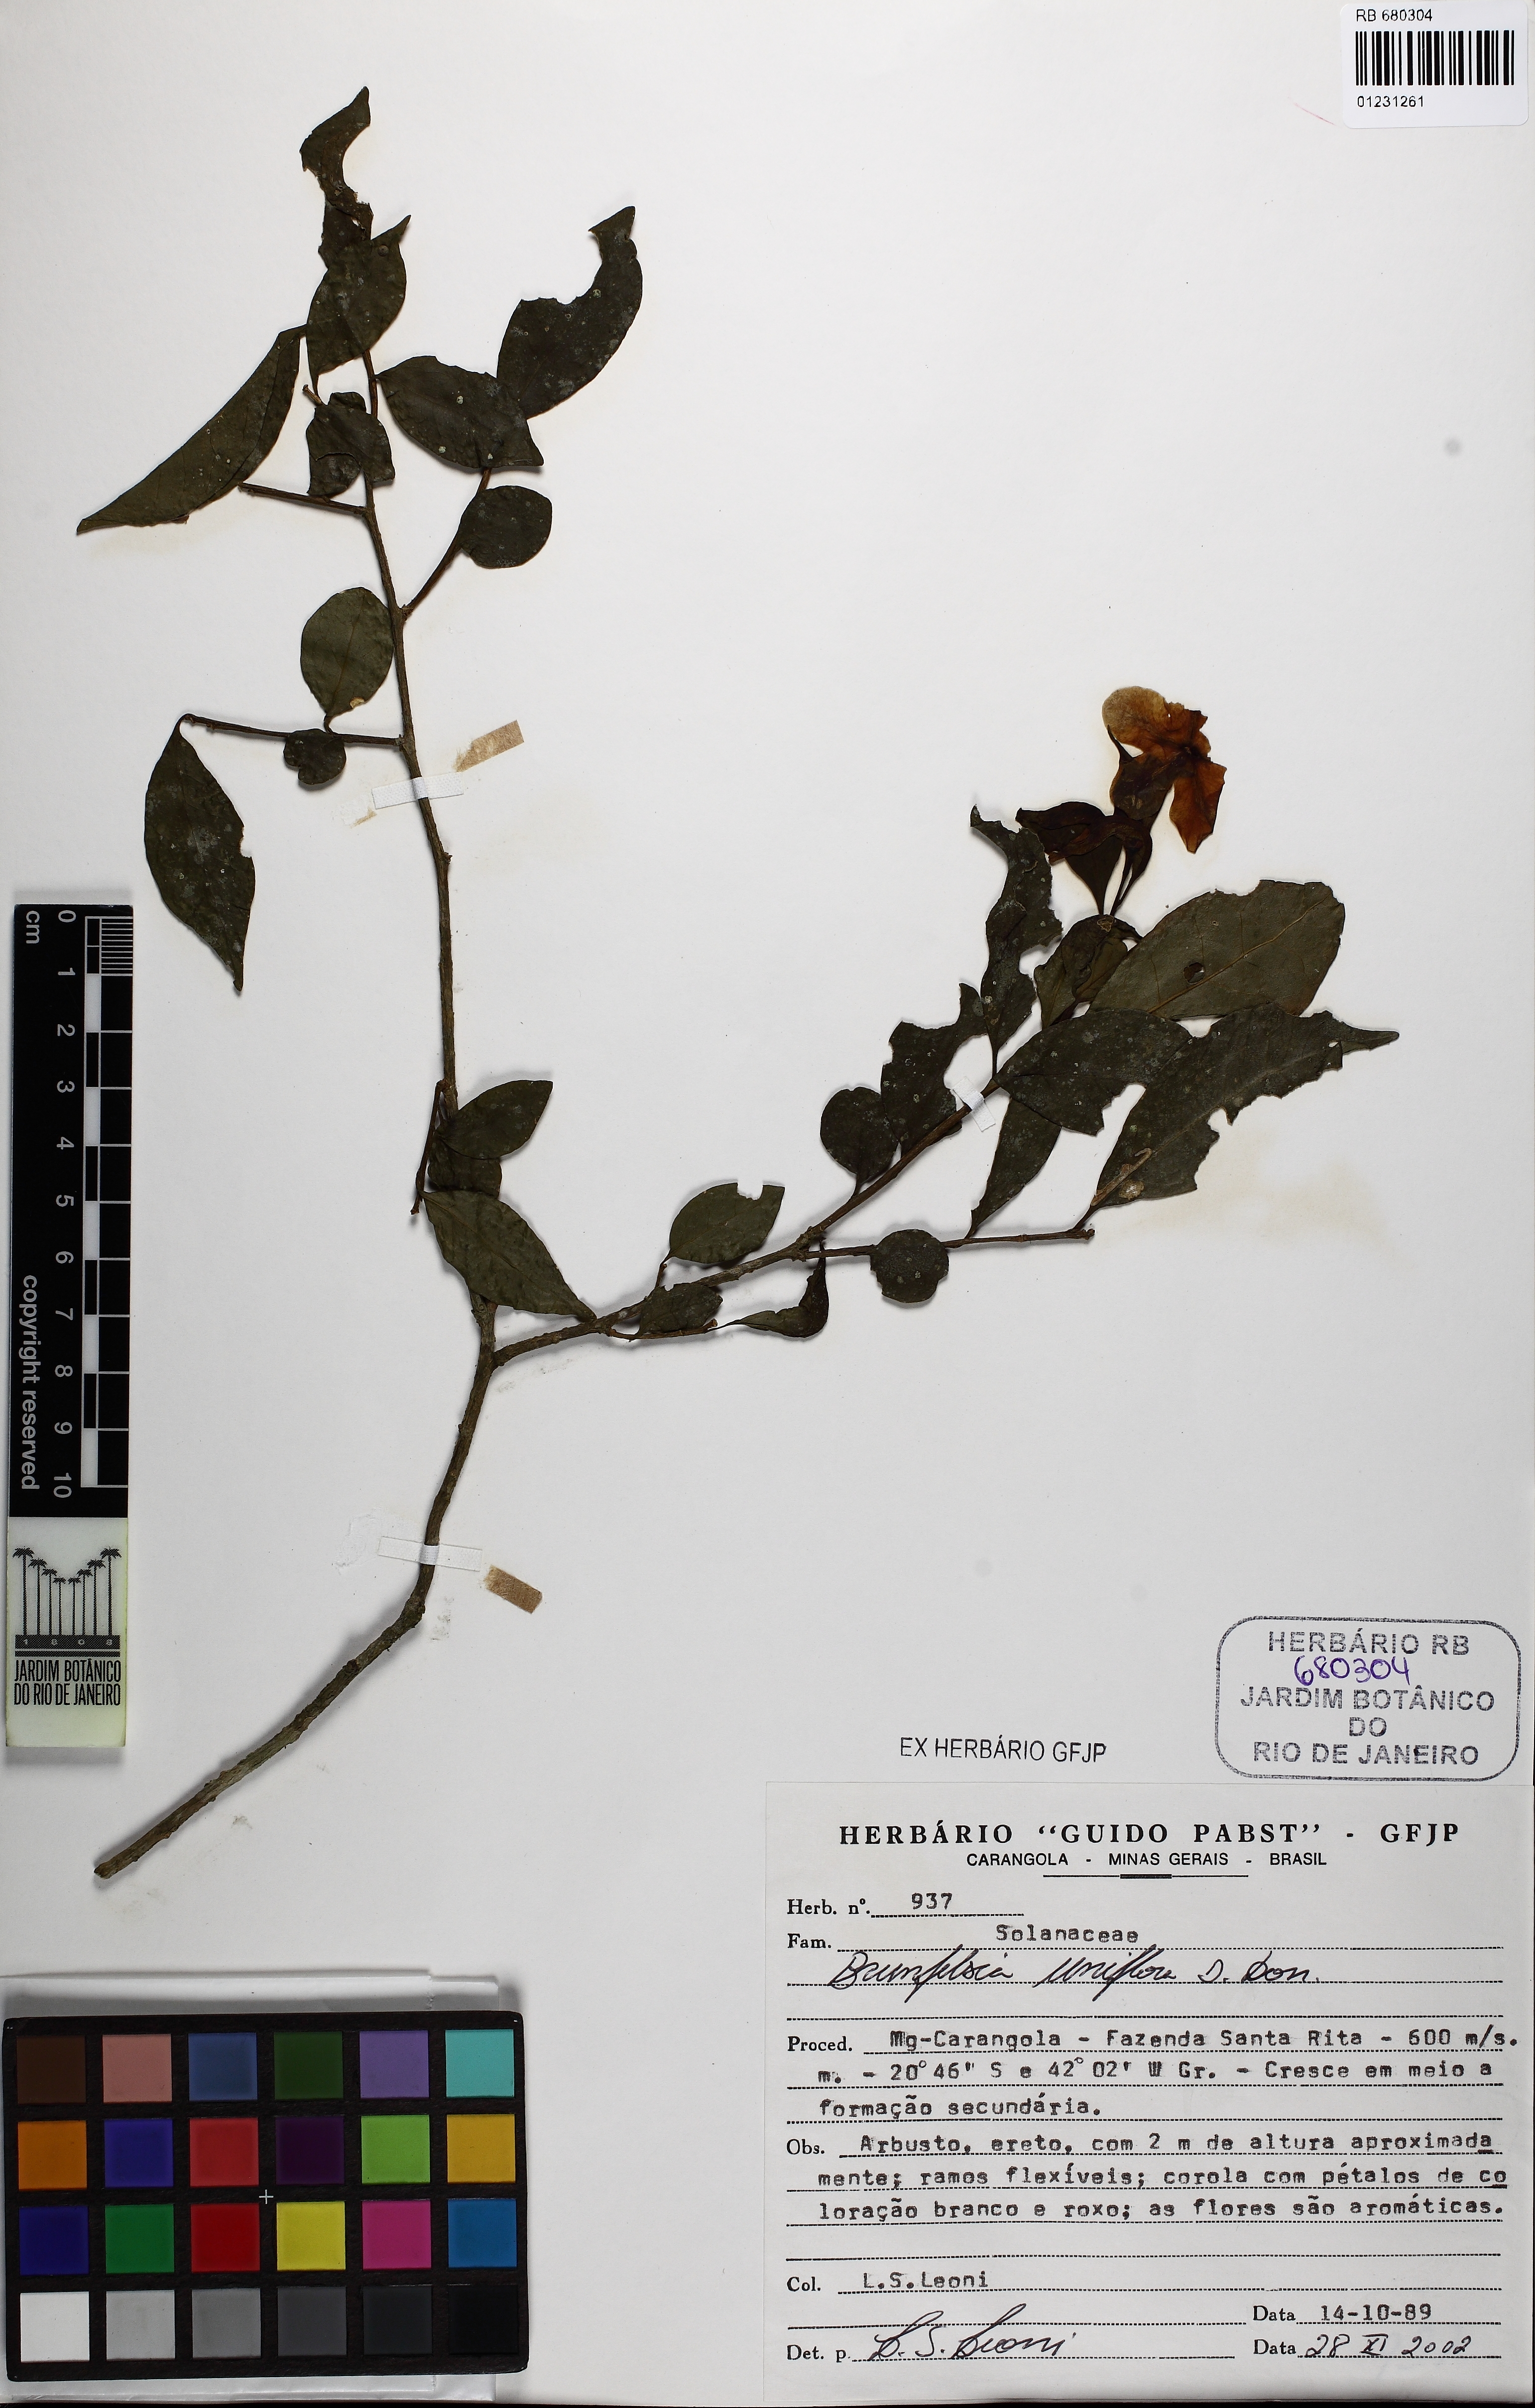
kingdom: Plantae
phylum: Tracheophyta
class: Magnoliopsida
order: Solanales
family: Solanaceae
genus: Brunfelsia
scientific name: Brunfelsia uniflora
